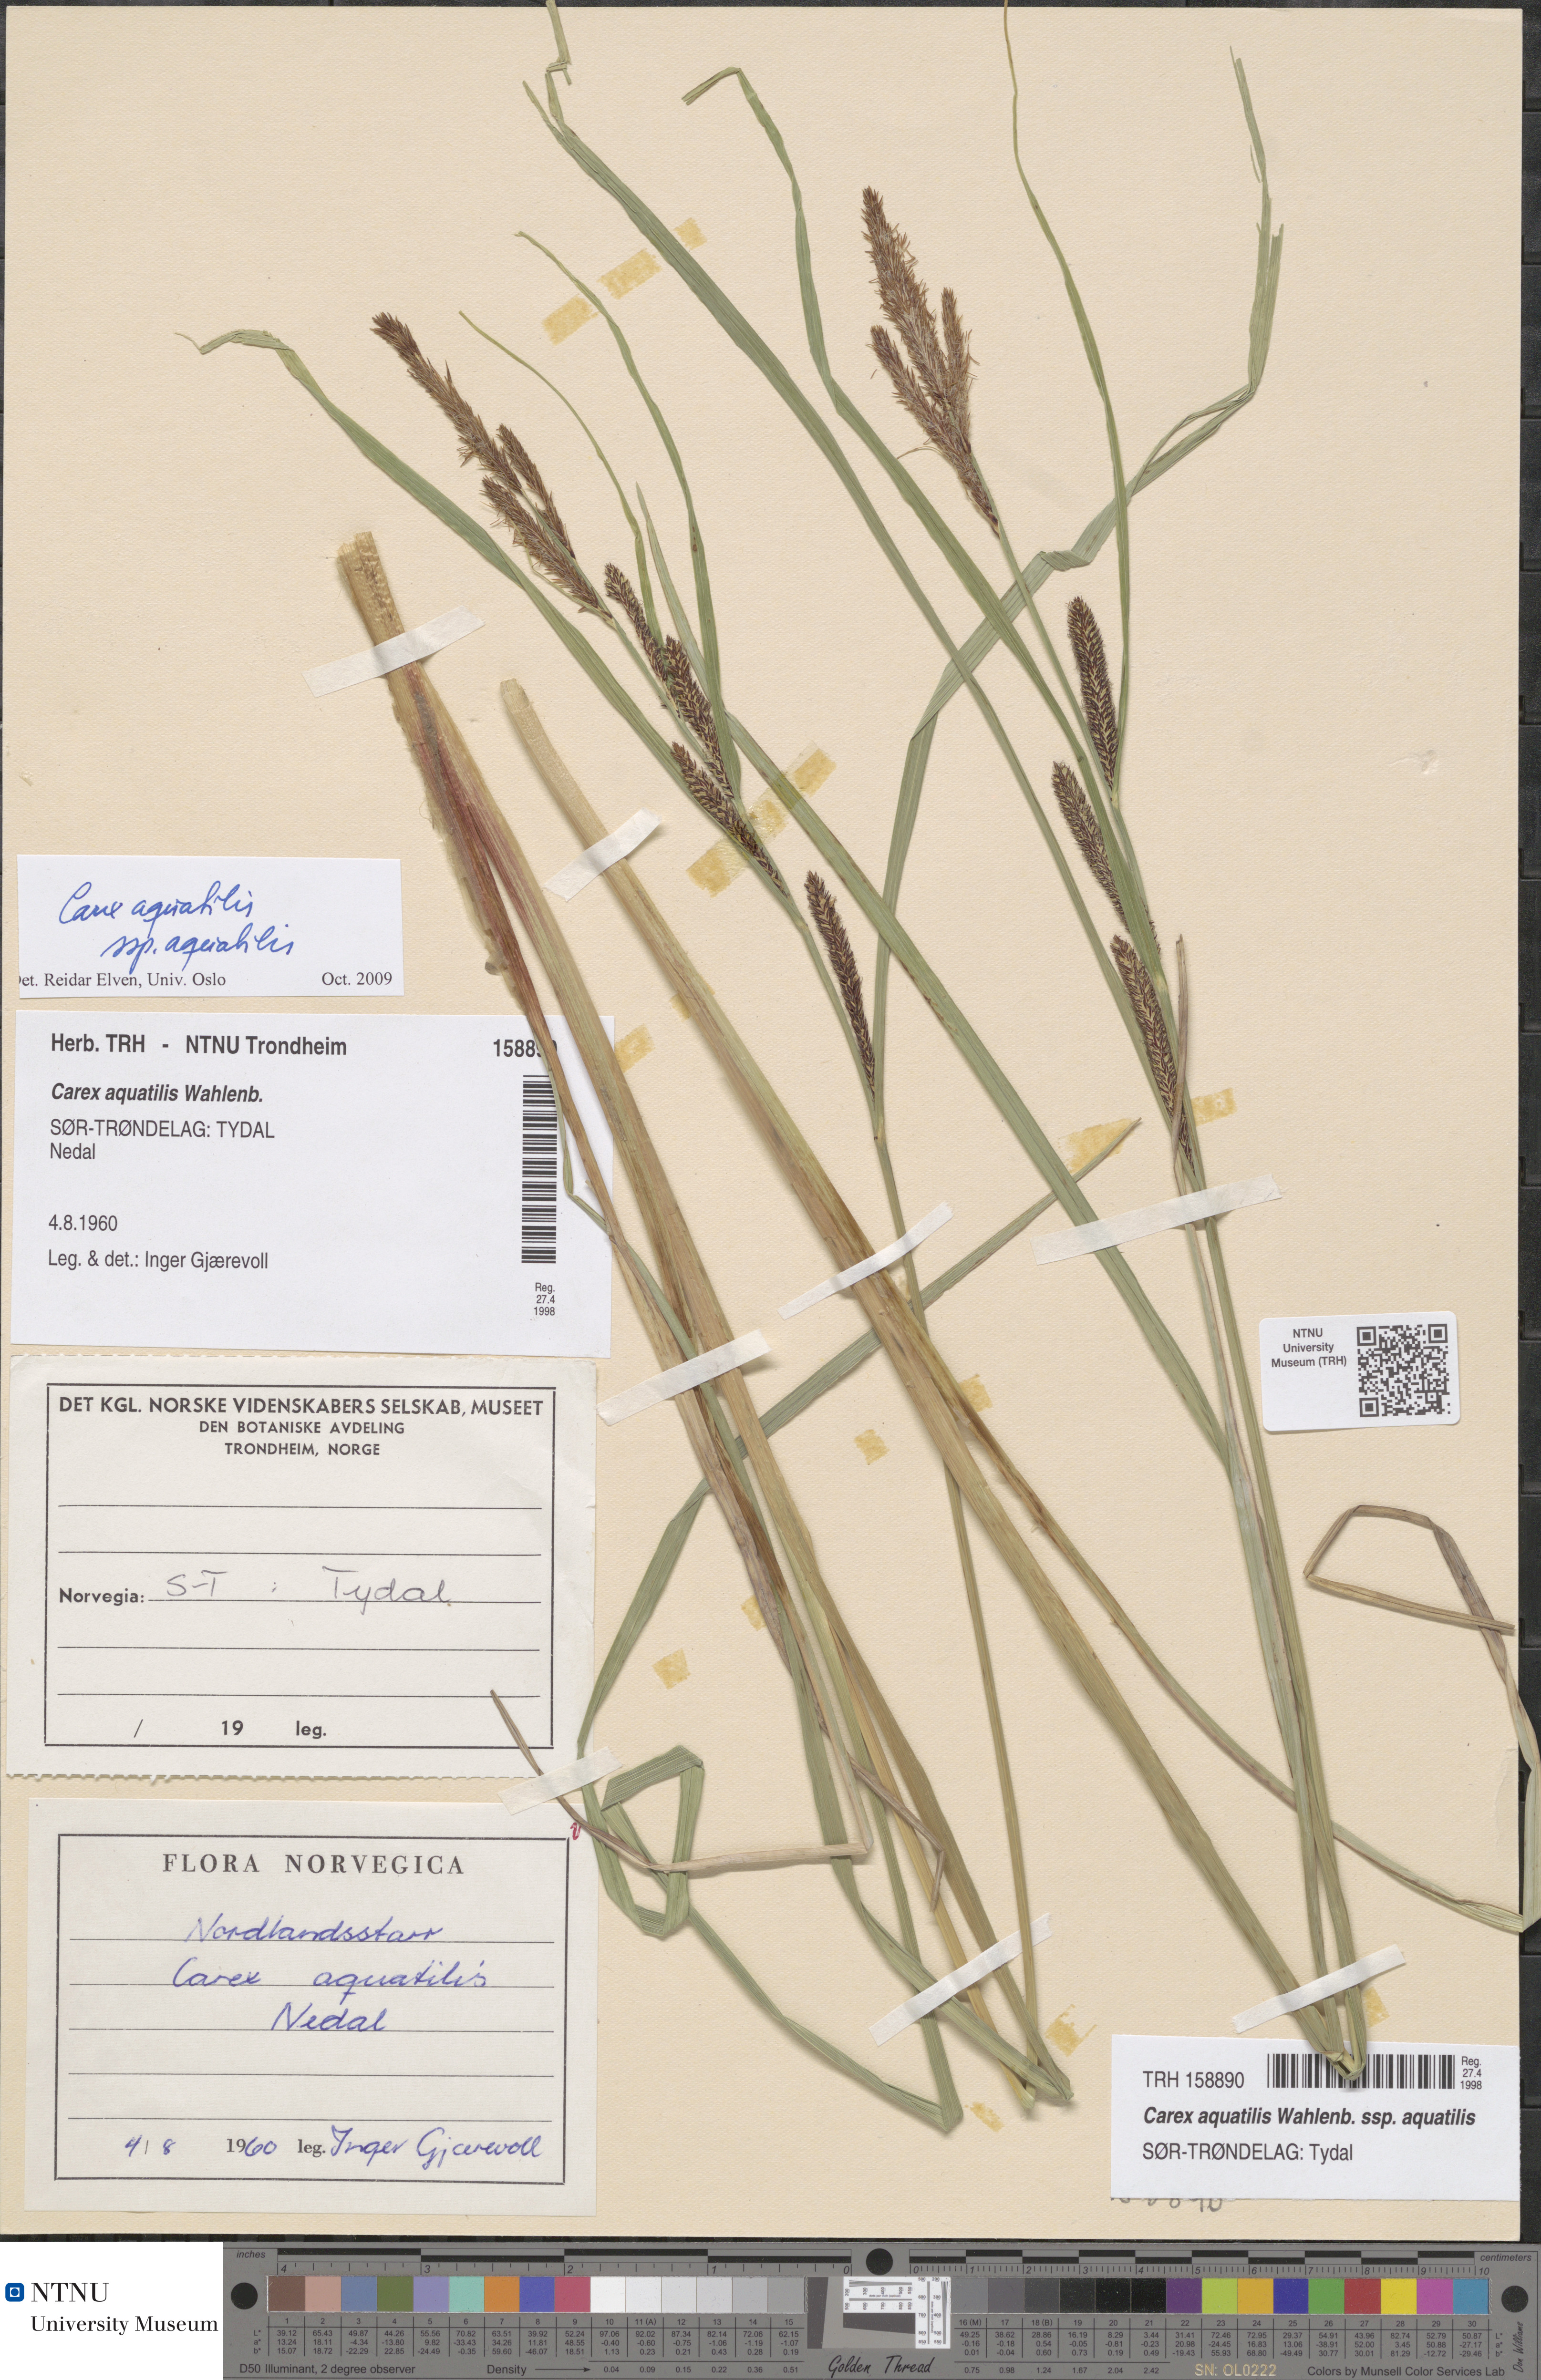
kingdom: Plantae
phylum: Tracheophyta
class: Liliopsida
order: Poales
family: Cyperaceae
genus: Carex
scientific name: Carex aquatilis
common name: Water sedge
